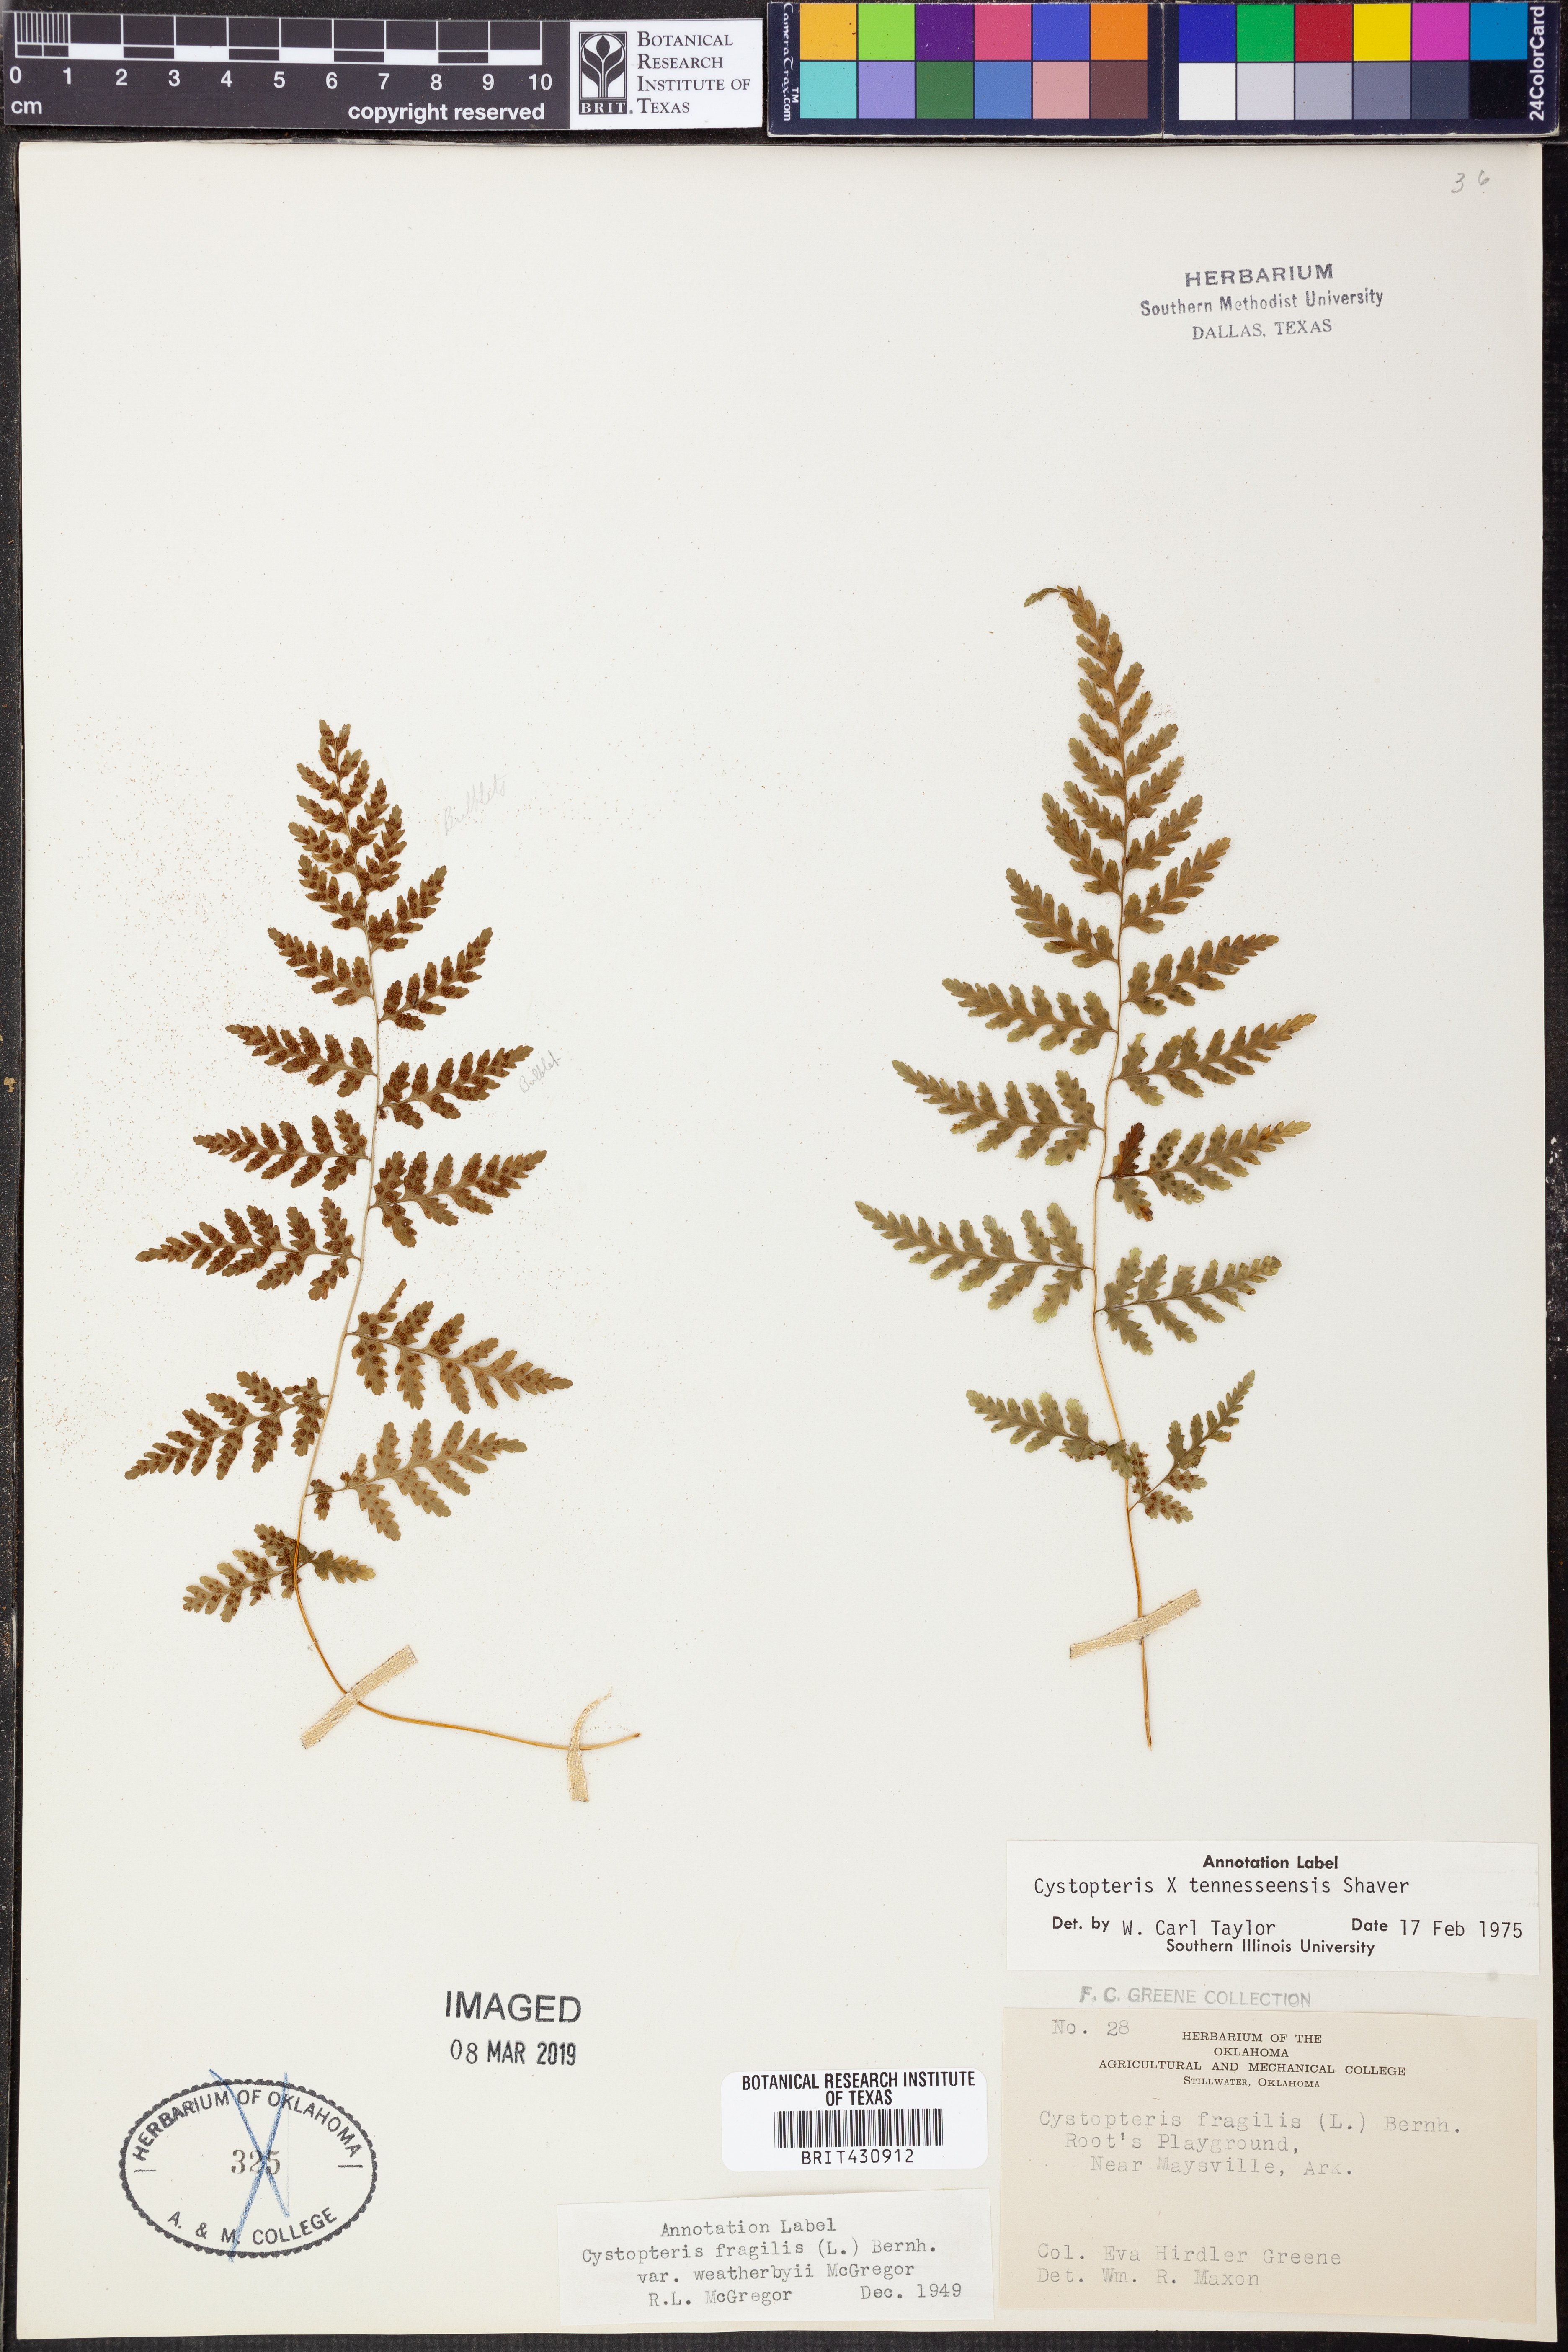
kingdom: Plantae
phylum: Tracheophyta
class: Polypodiopsida
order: Polypodiales
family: Cystopteridaceae
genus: Cystopteris
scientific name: Cystopteris tennesseensis
